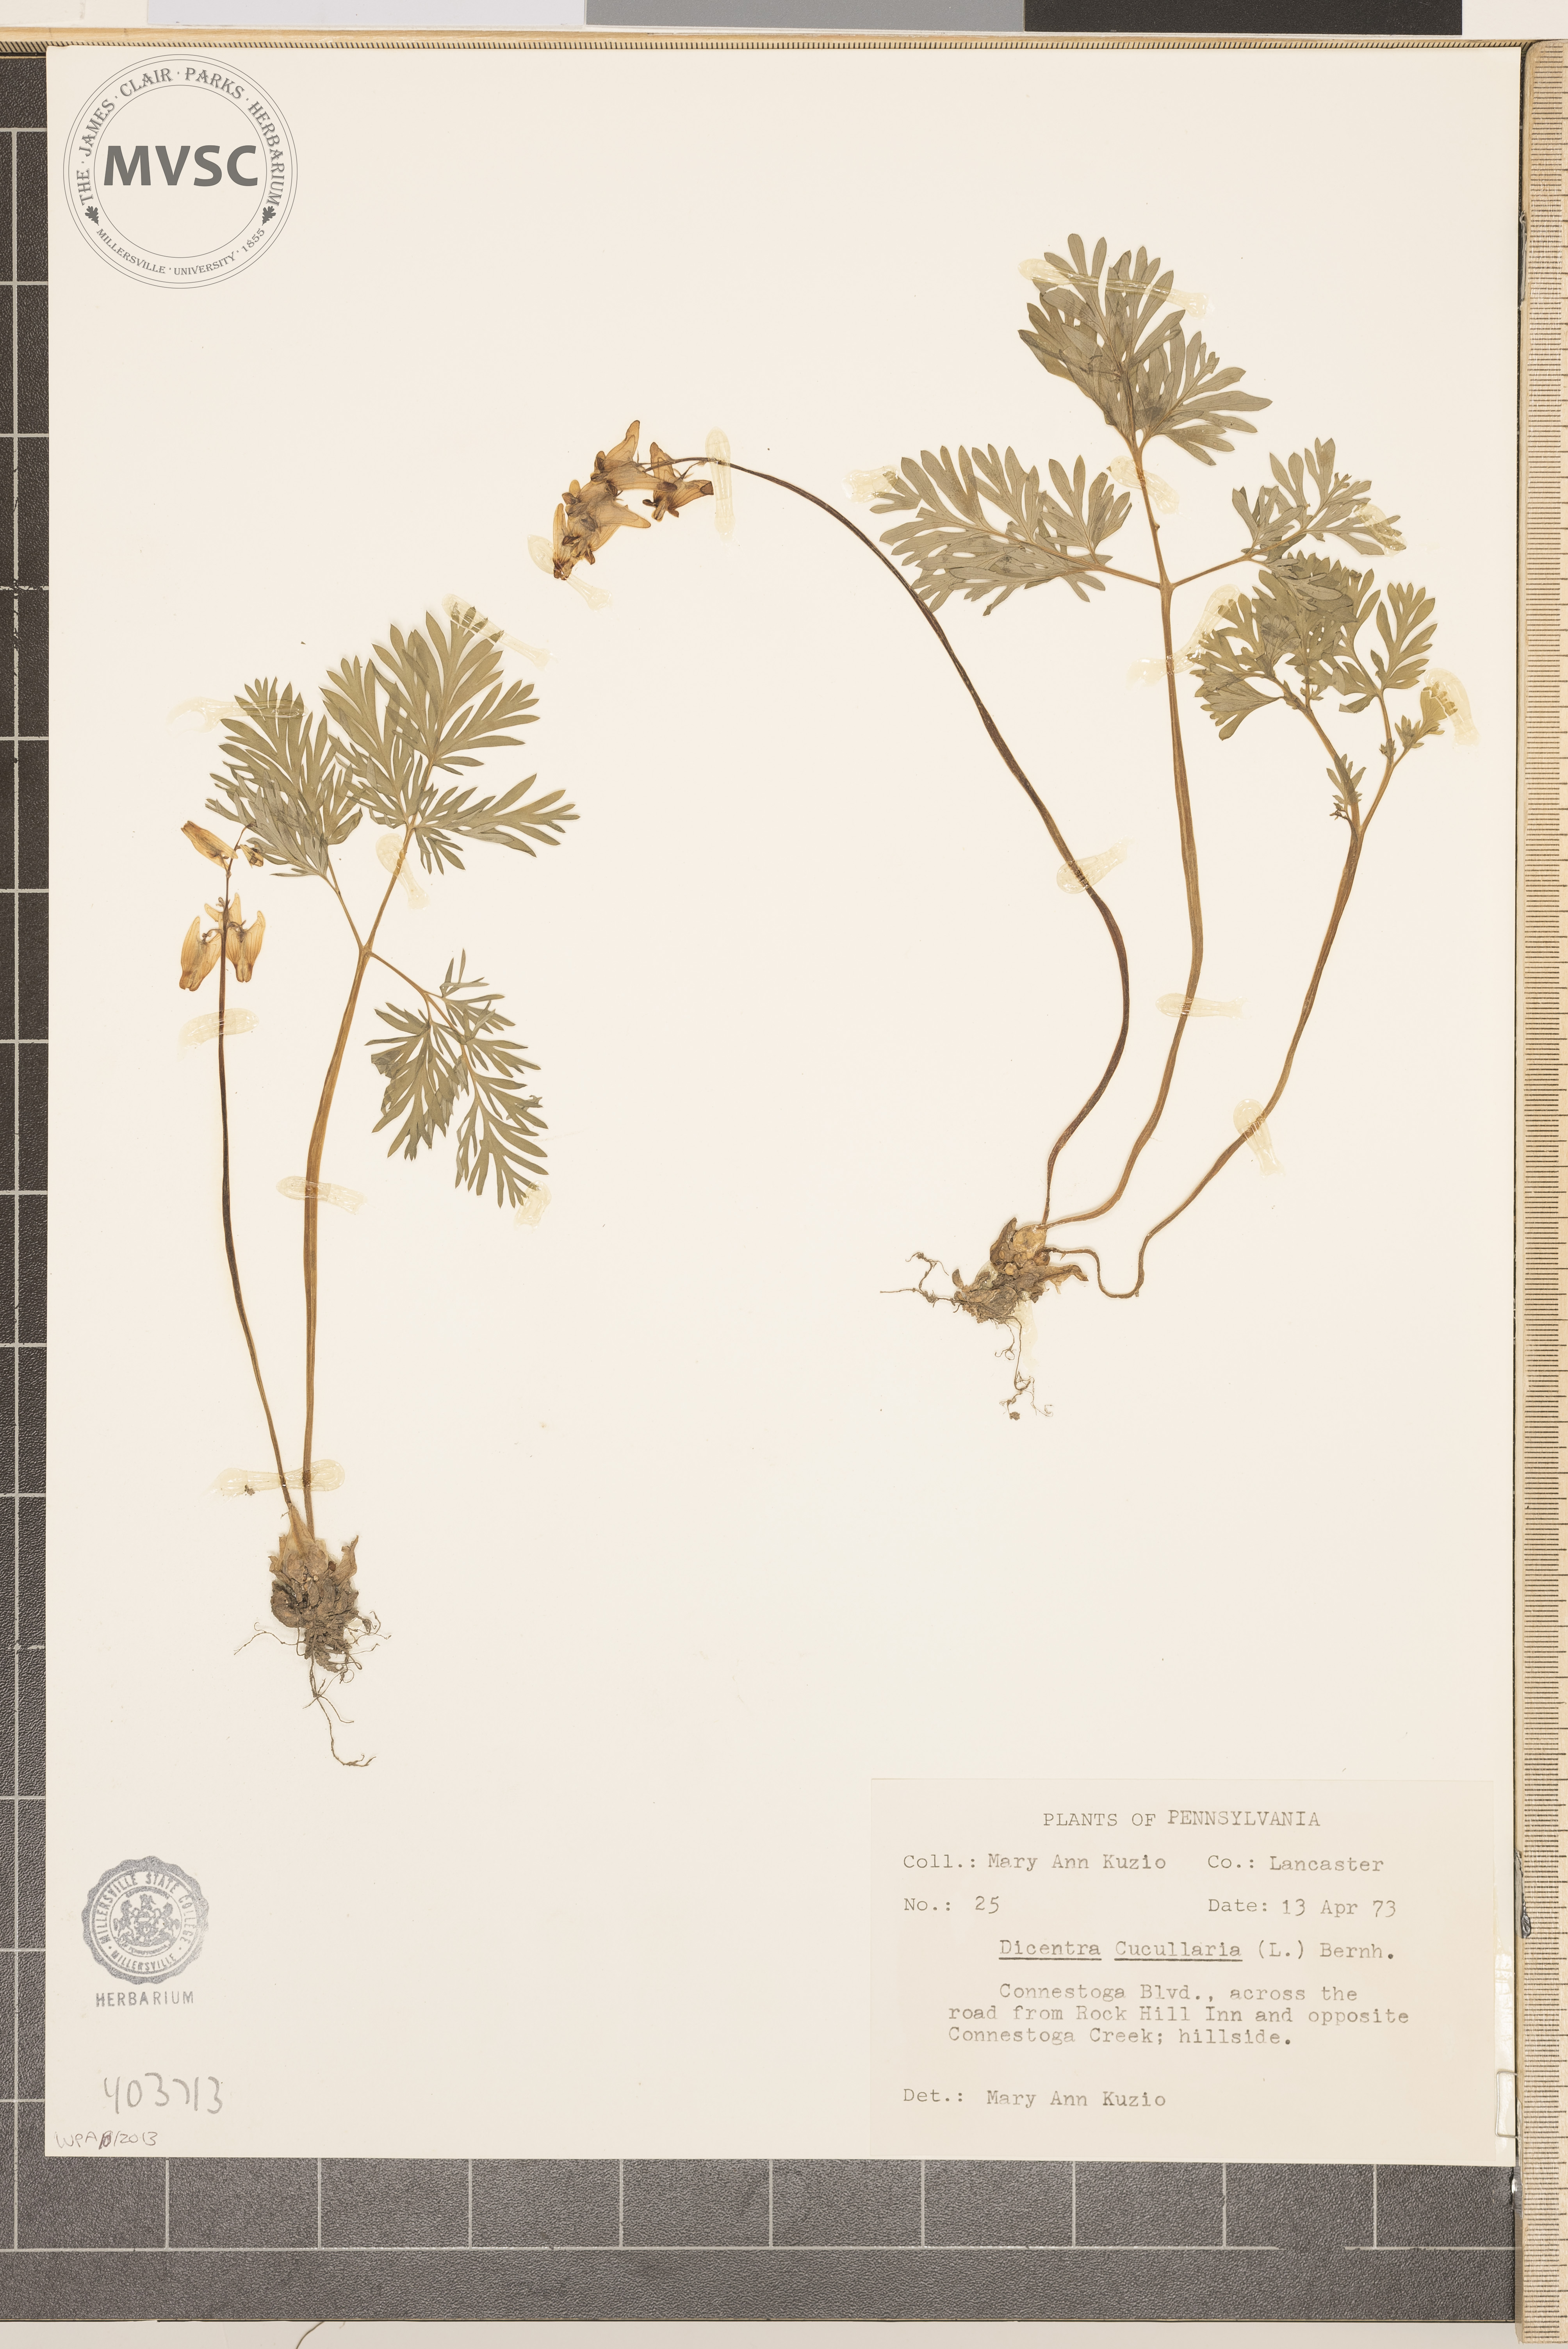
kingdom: Plantae
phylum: Tracheophyta
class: Magnoliopsida
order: Ranunculales
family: Papaveraceae
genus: Dicentra
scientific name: Dicentra cucullaria
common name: Dutchman's breeches
